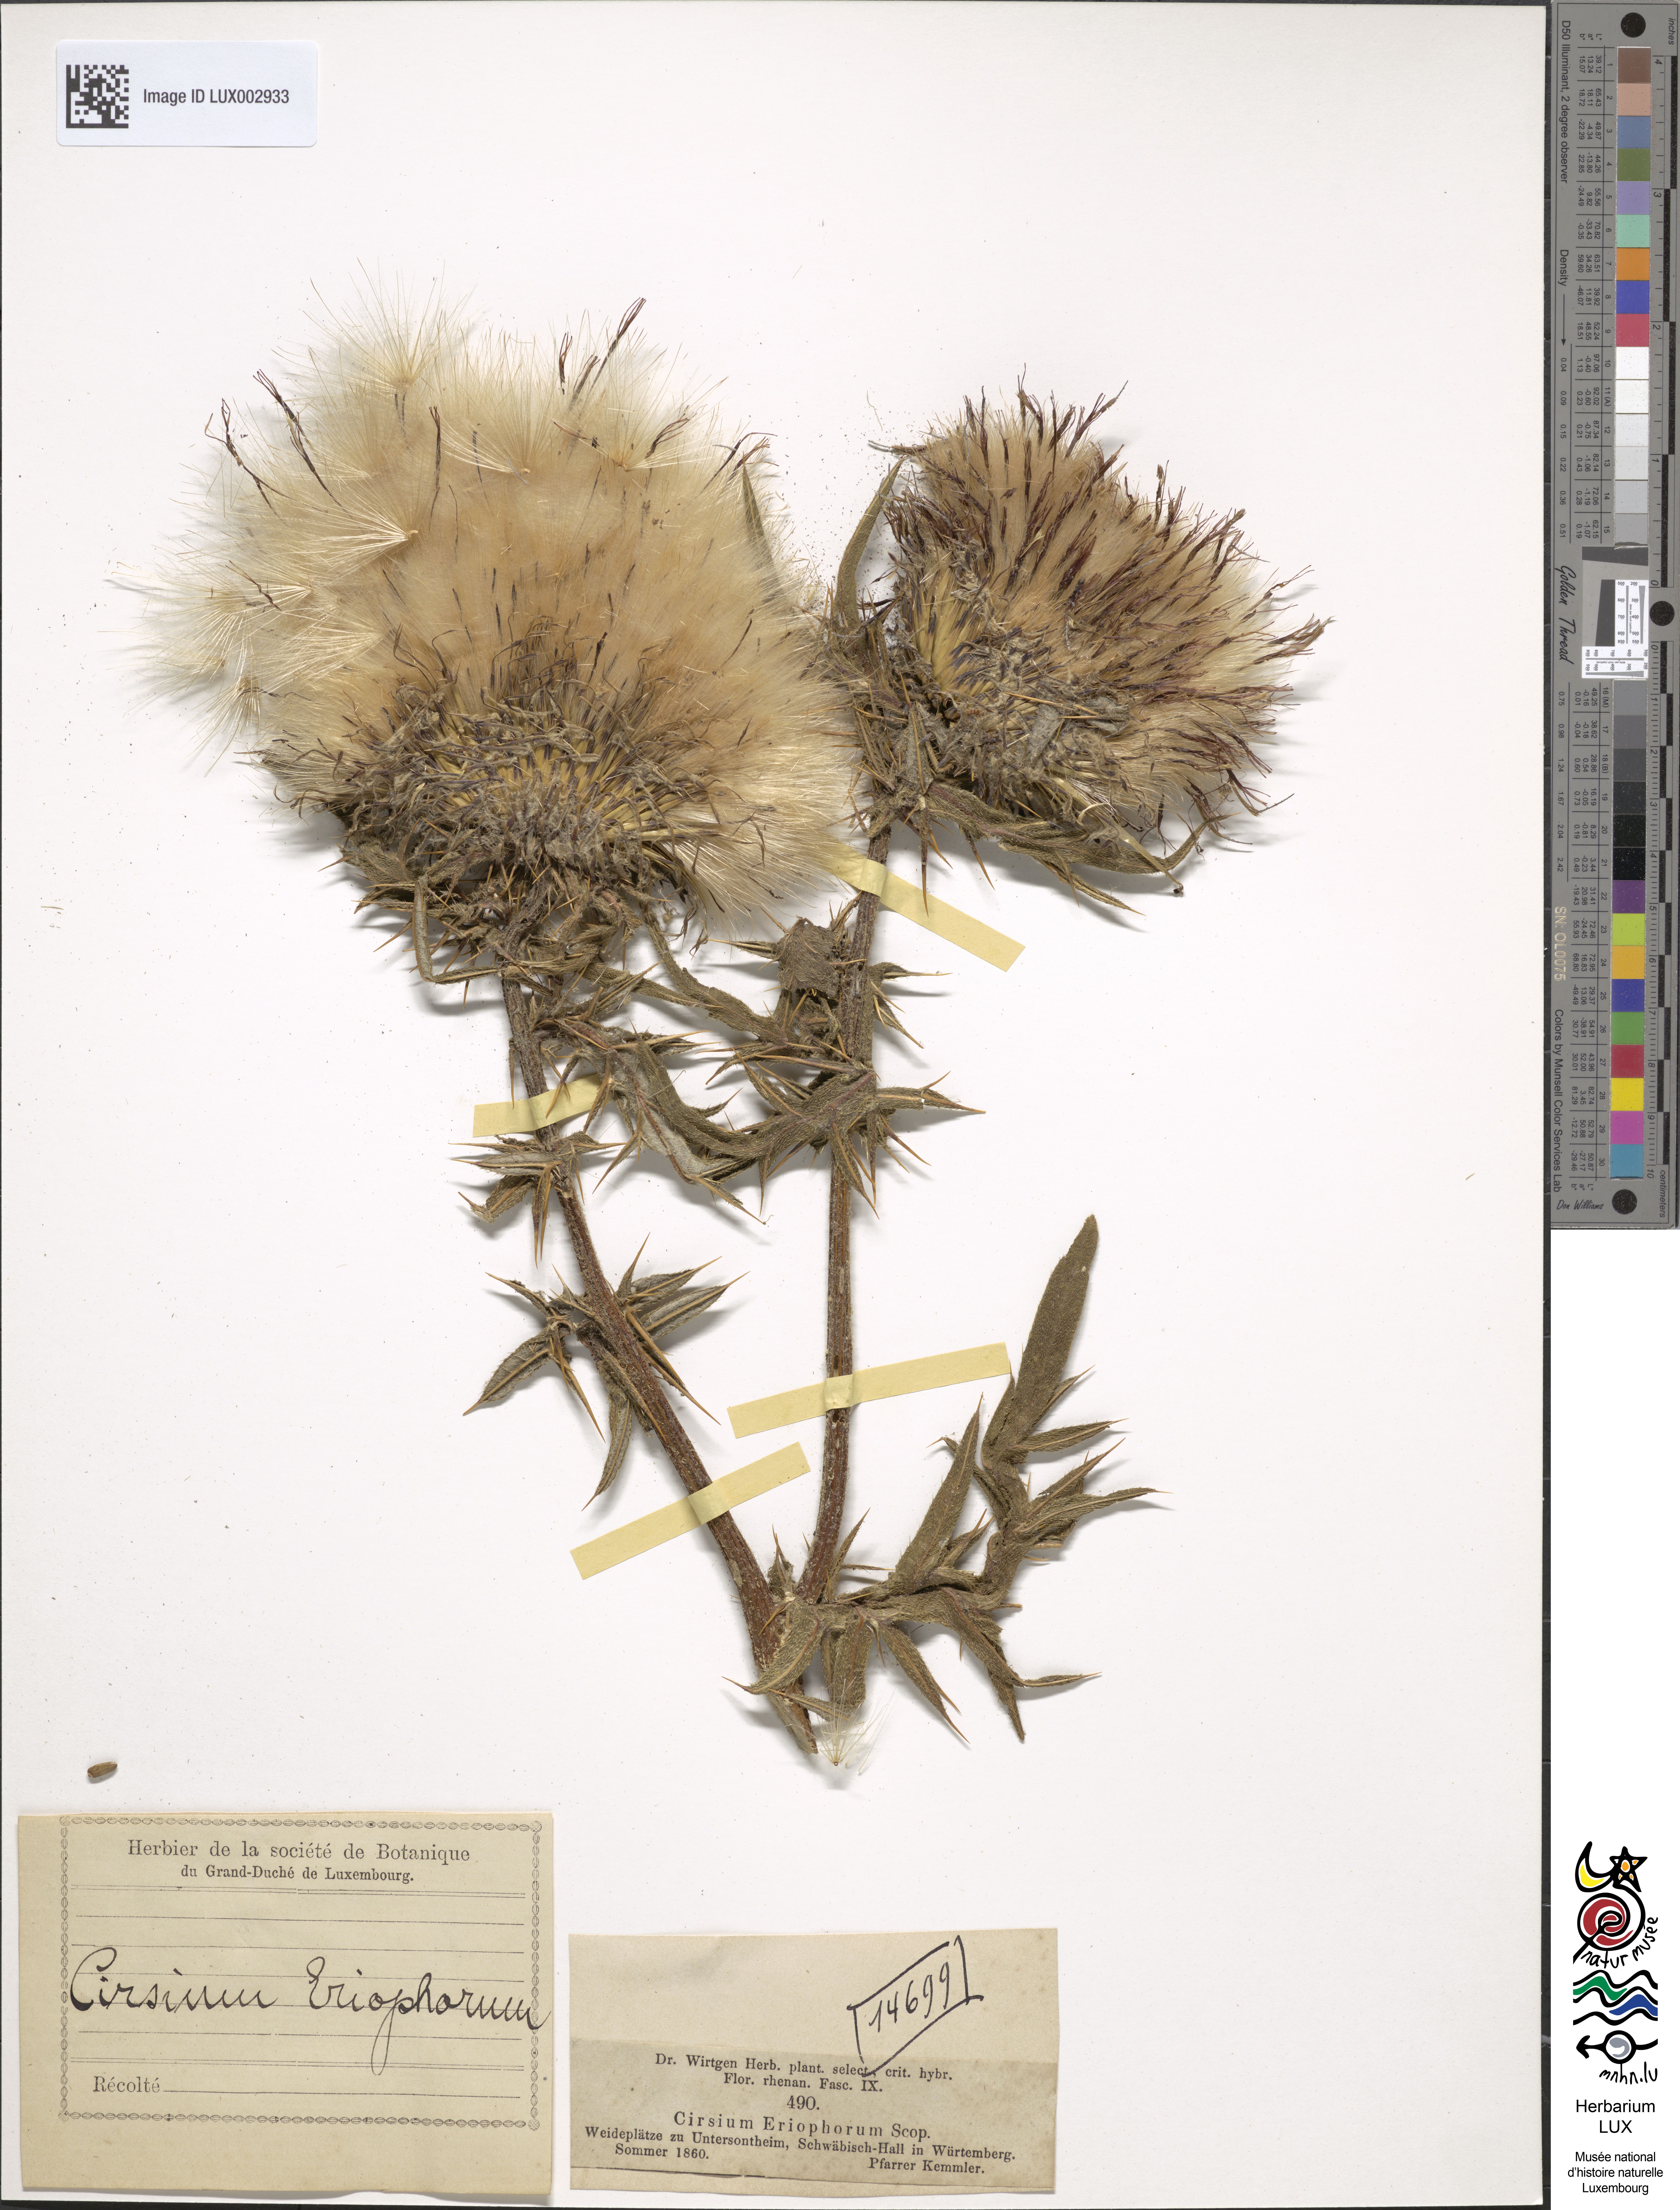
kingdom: Plantae
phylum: Tracheophyta
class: Magnoliopsida
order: Asterales
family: Asteraceae
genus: Lophiolepis
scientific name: Lophiolepis eriophora
